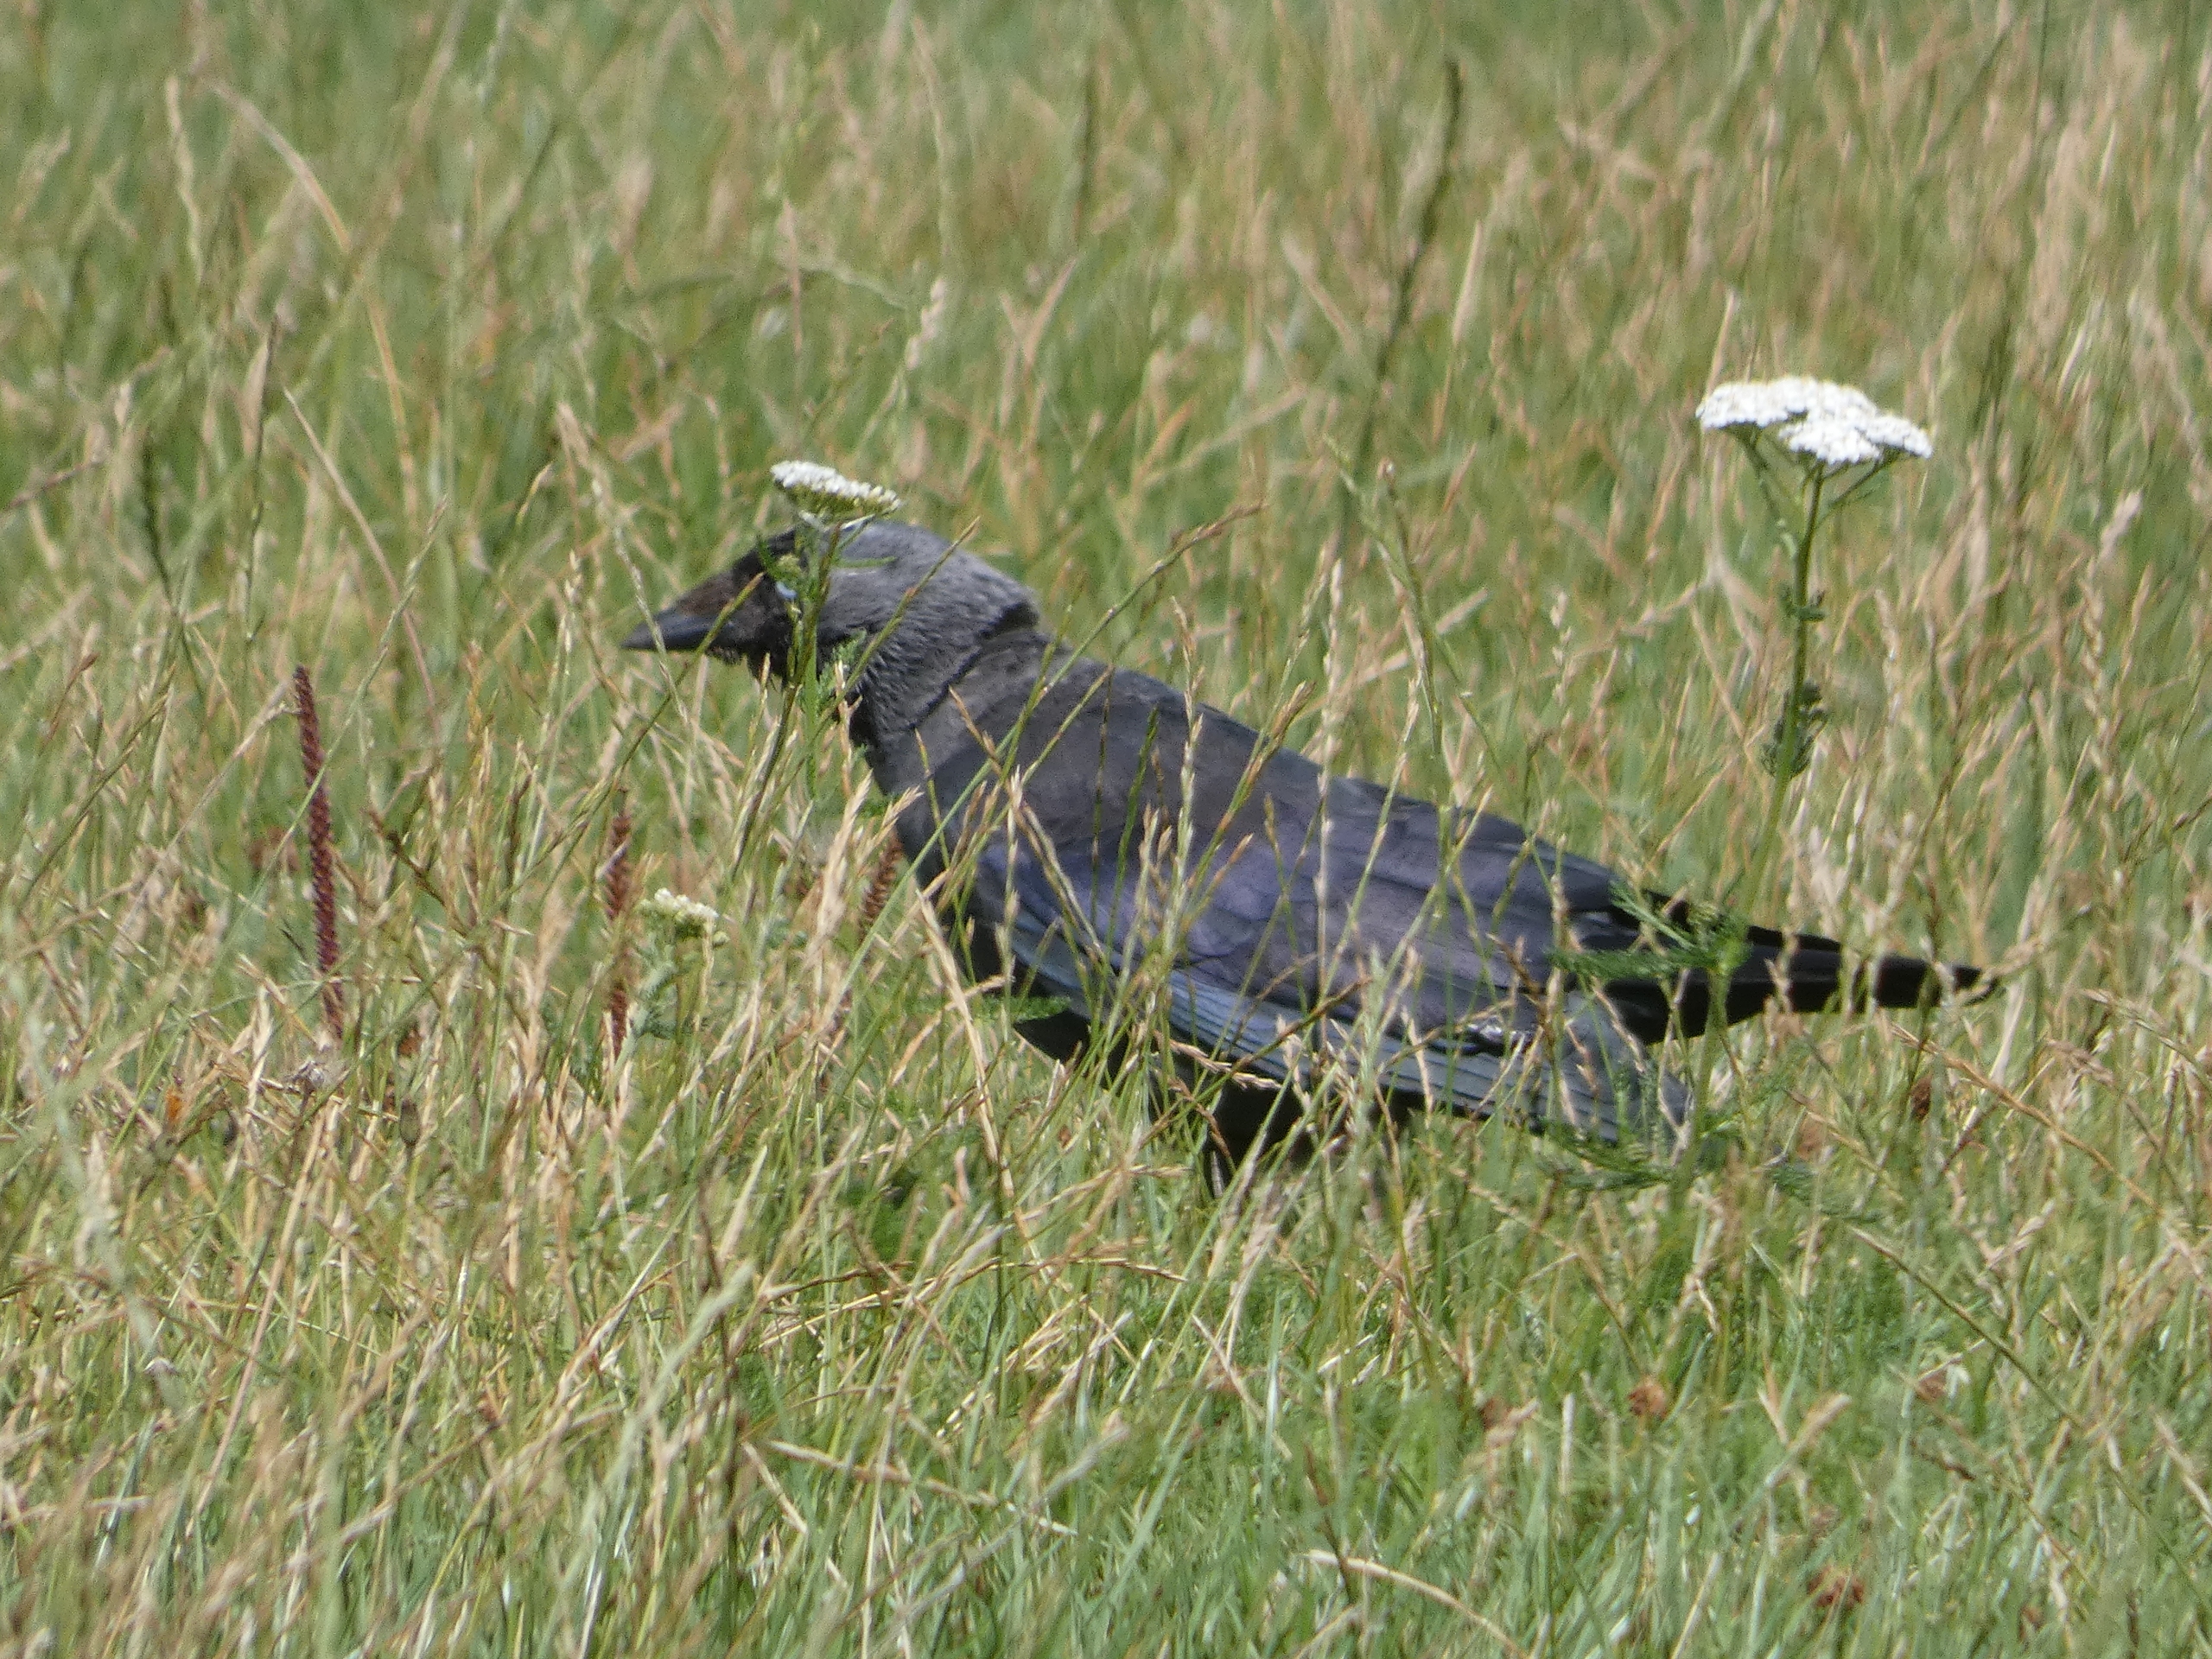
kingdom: Animalia
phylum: Chordata
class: Aves
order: Passeriformes
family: Corvidae
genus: Coloeus
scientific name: Coloeus monedula
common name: Allike
